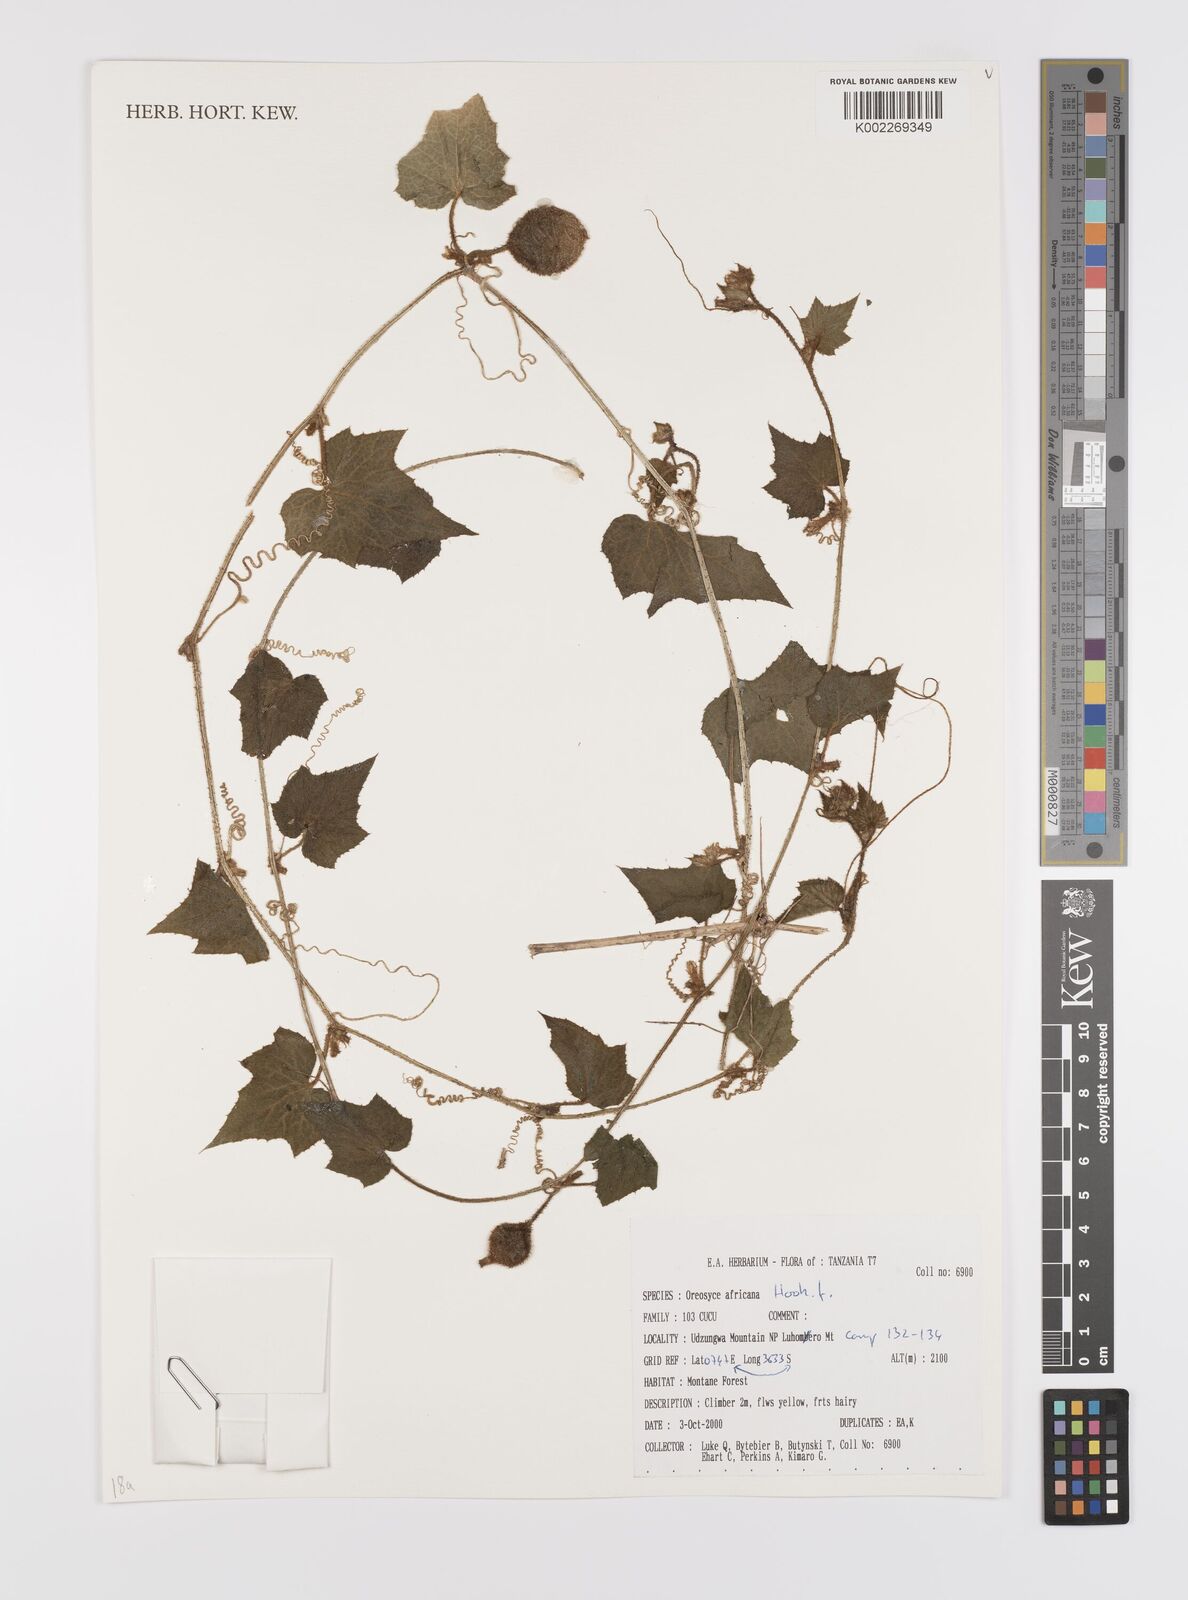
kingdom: Plantae
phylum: Tracheophyta
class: Magnoliopsida
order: Cucurbitales
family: Cucurbitaceae
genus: Cucumis
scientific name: Cucumis oreosyce
